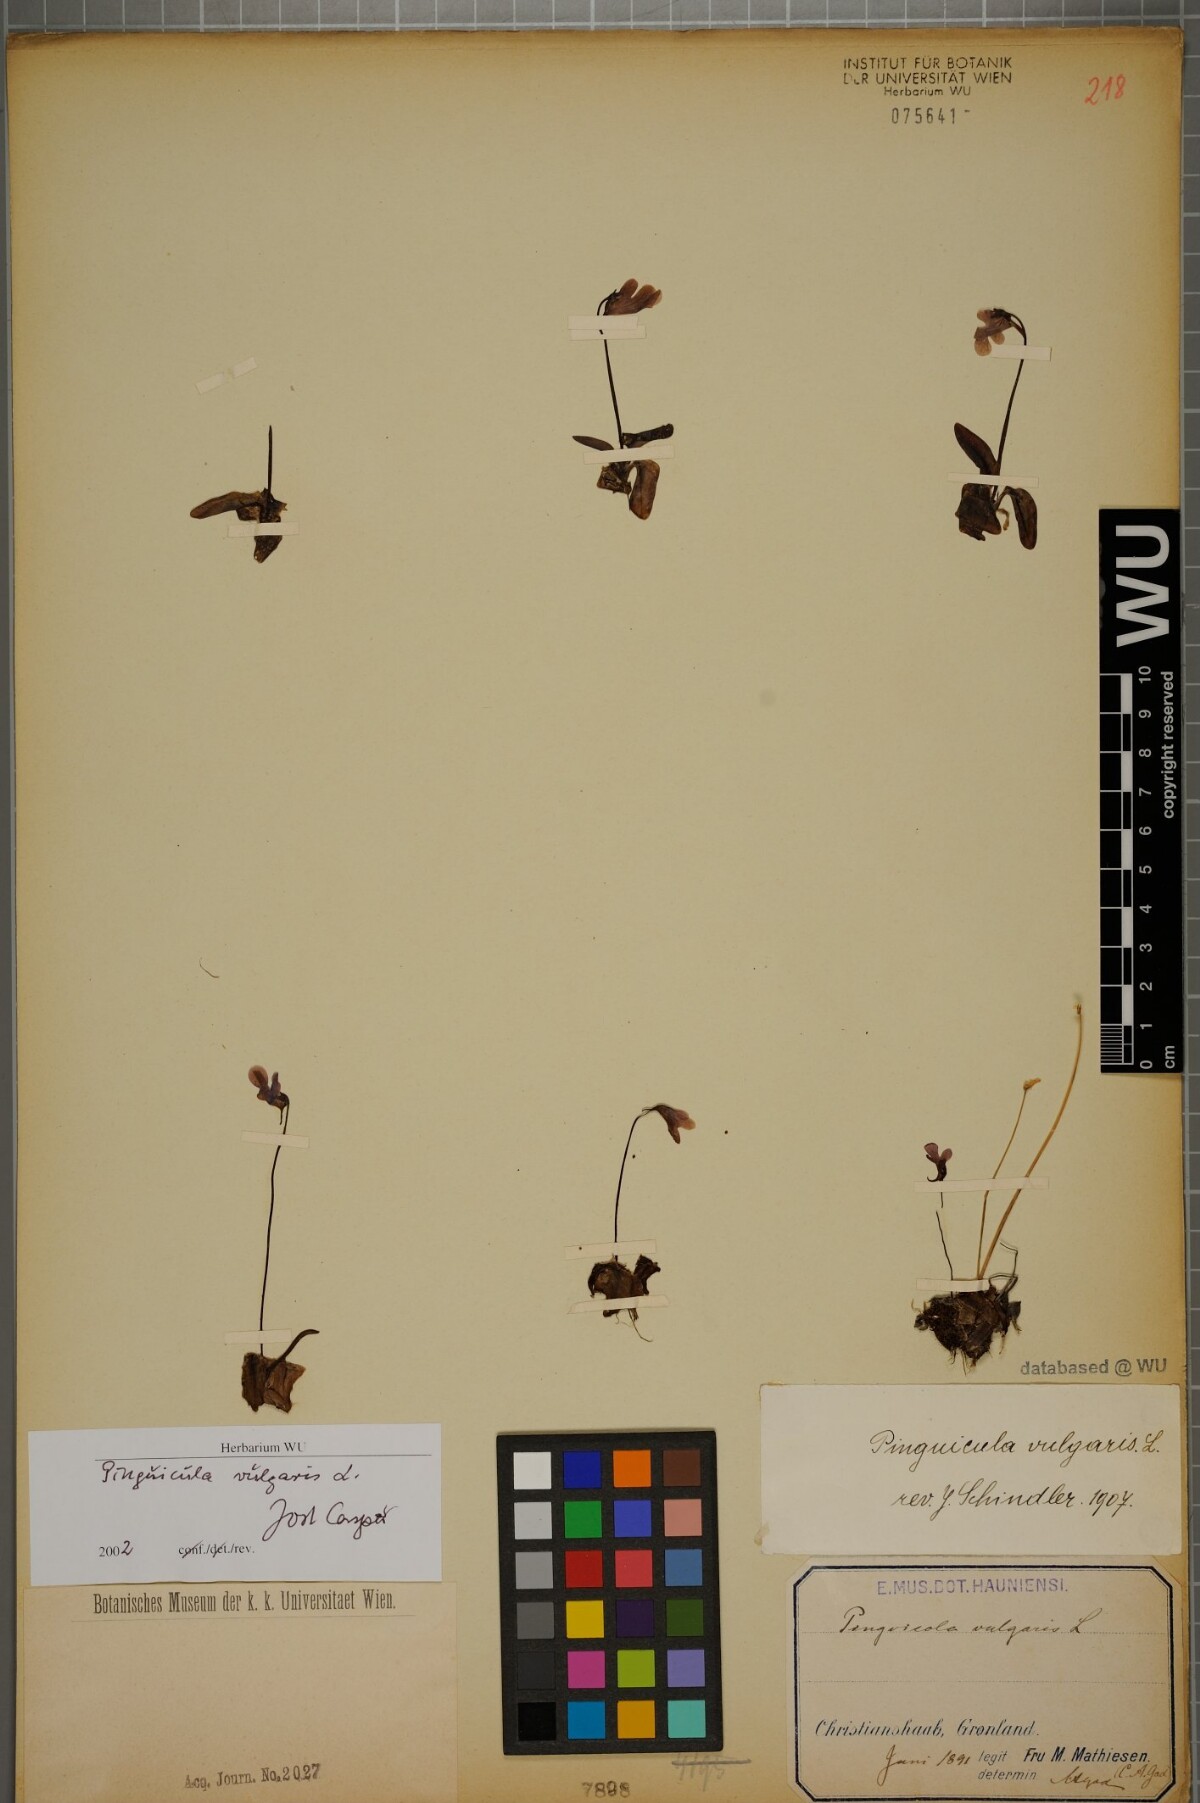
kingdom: Plantae
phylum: Tracheophyta
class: Magnoliopsida
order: Lamiales
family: Lentibulariaceae
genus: Pinguicula
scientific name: Pinguicula vulgaris
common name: Common butterwort
